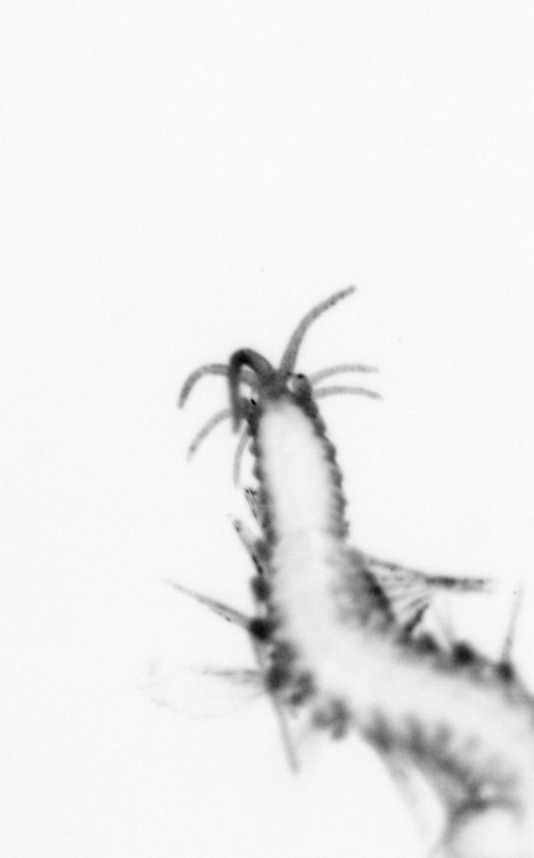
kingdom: Animalia
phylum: Annelida
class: Polychaeta
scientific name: Polychaeta
